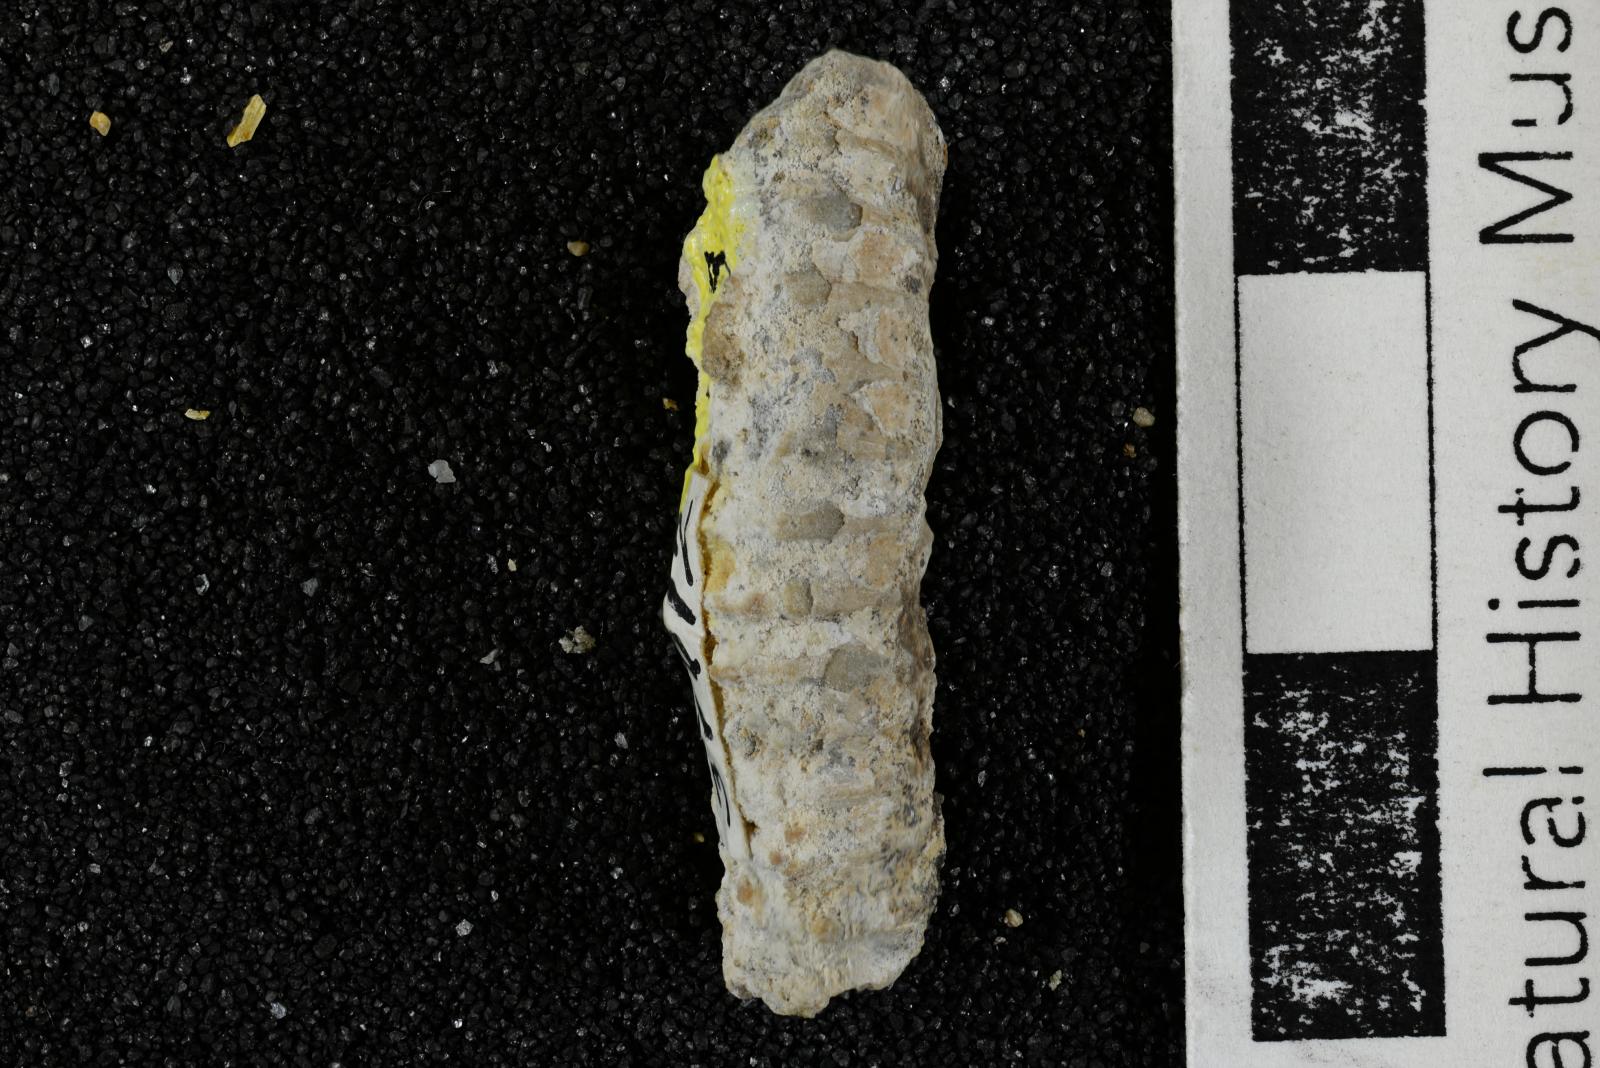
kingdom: Animalia
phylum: Mollusca
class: Cephalopoda
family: Nostoceratidae
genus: Nostoceras
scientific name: Nostoceras
